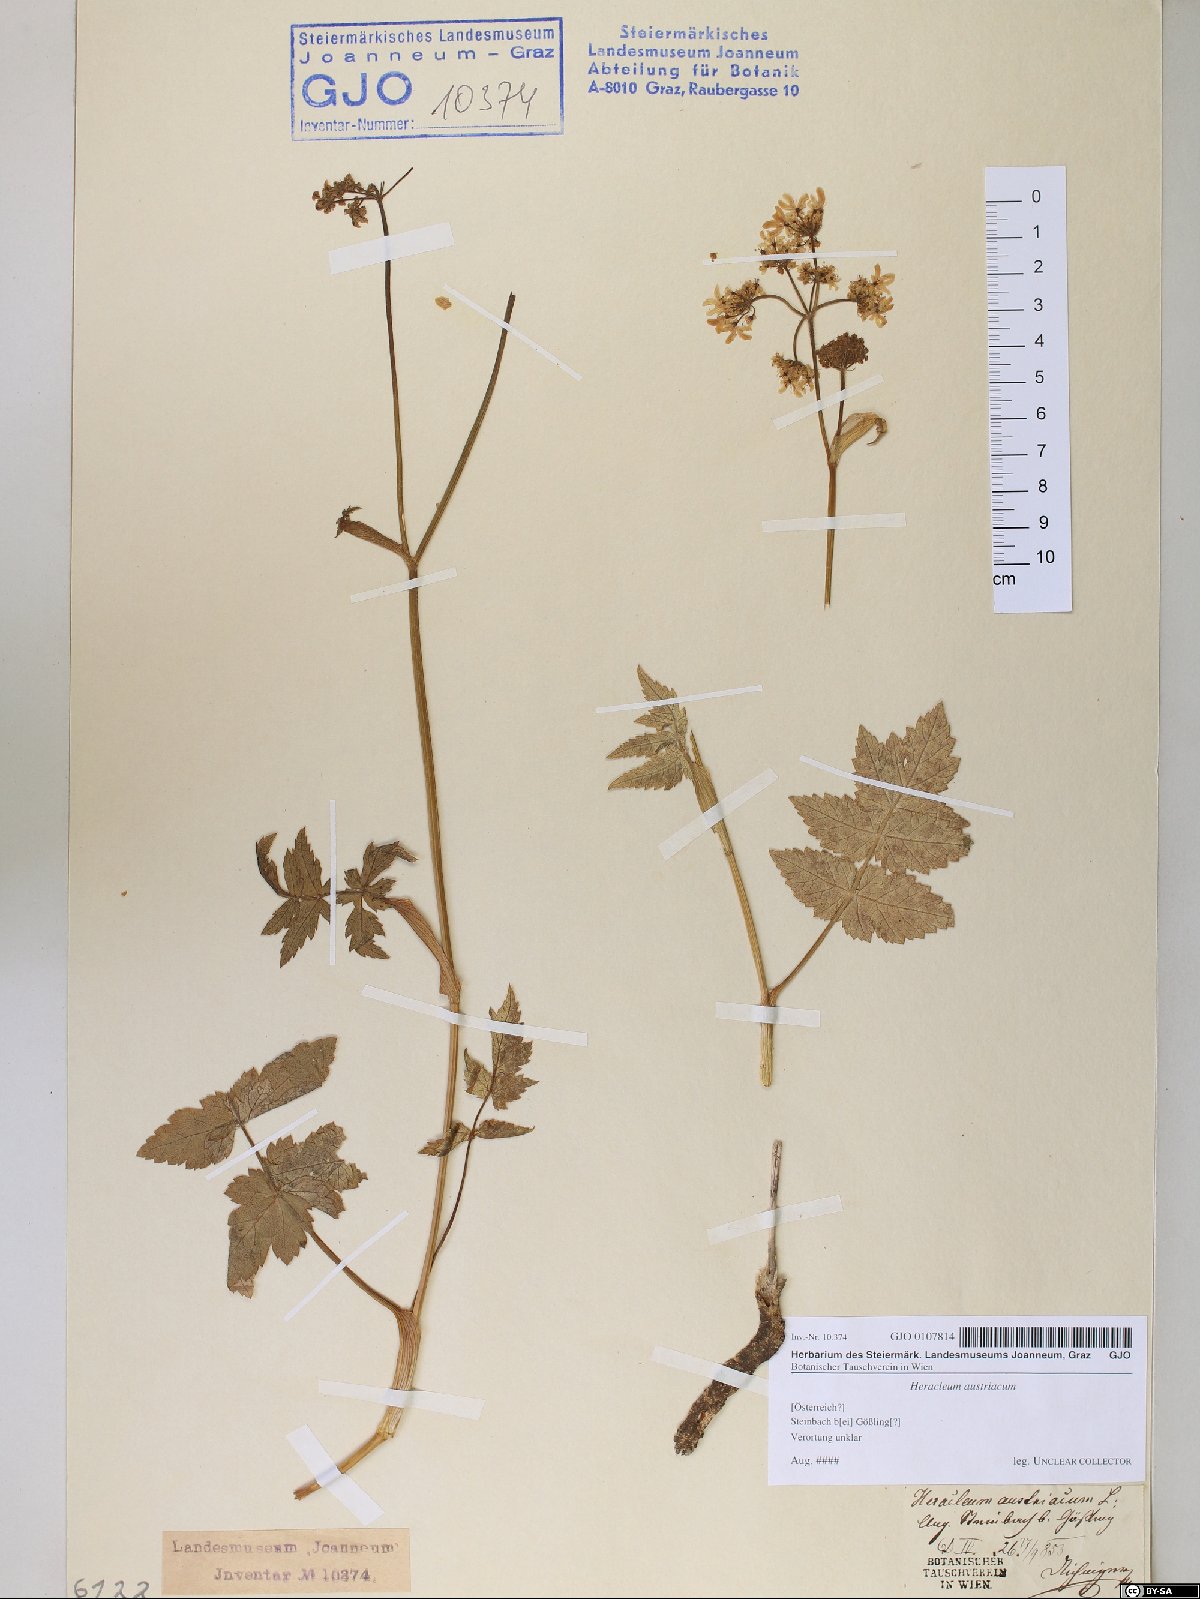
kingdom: Plantae
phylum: Tracheophyta
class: Magnoliopsida
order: Apiales
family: Apiaceae
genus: Heracleum
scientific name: Heracleum austriacum
